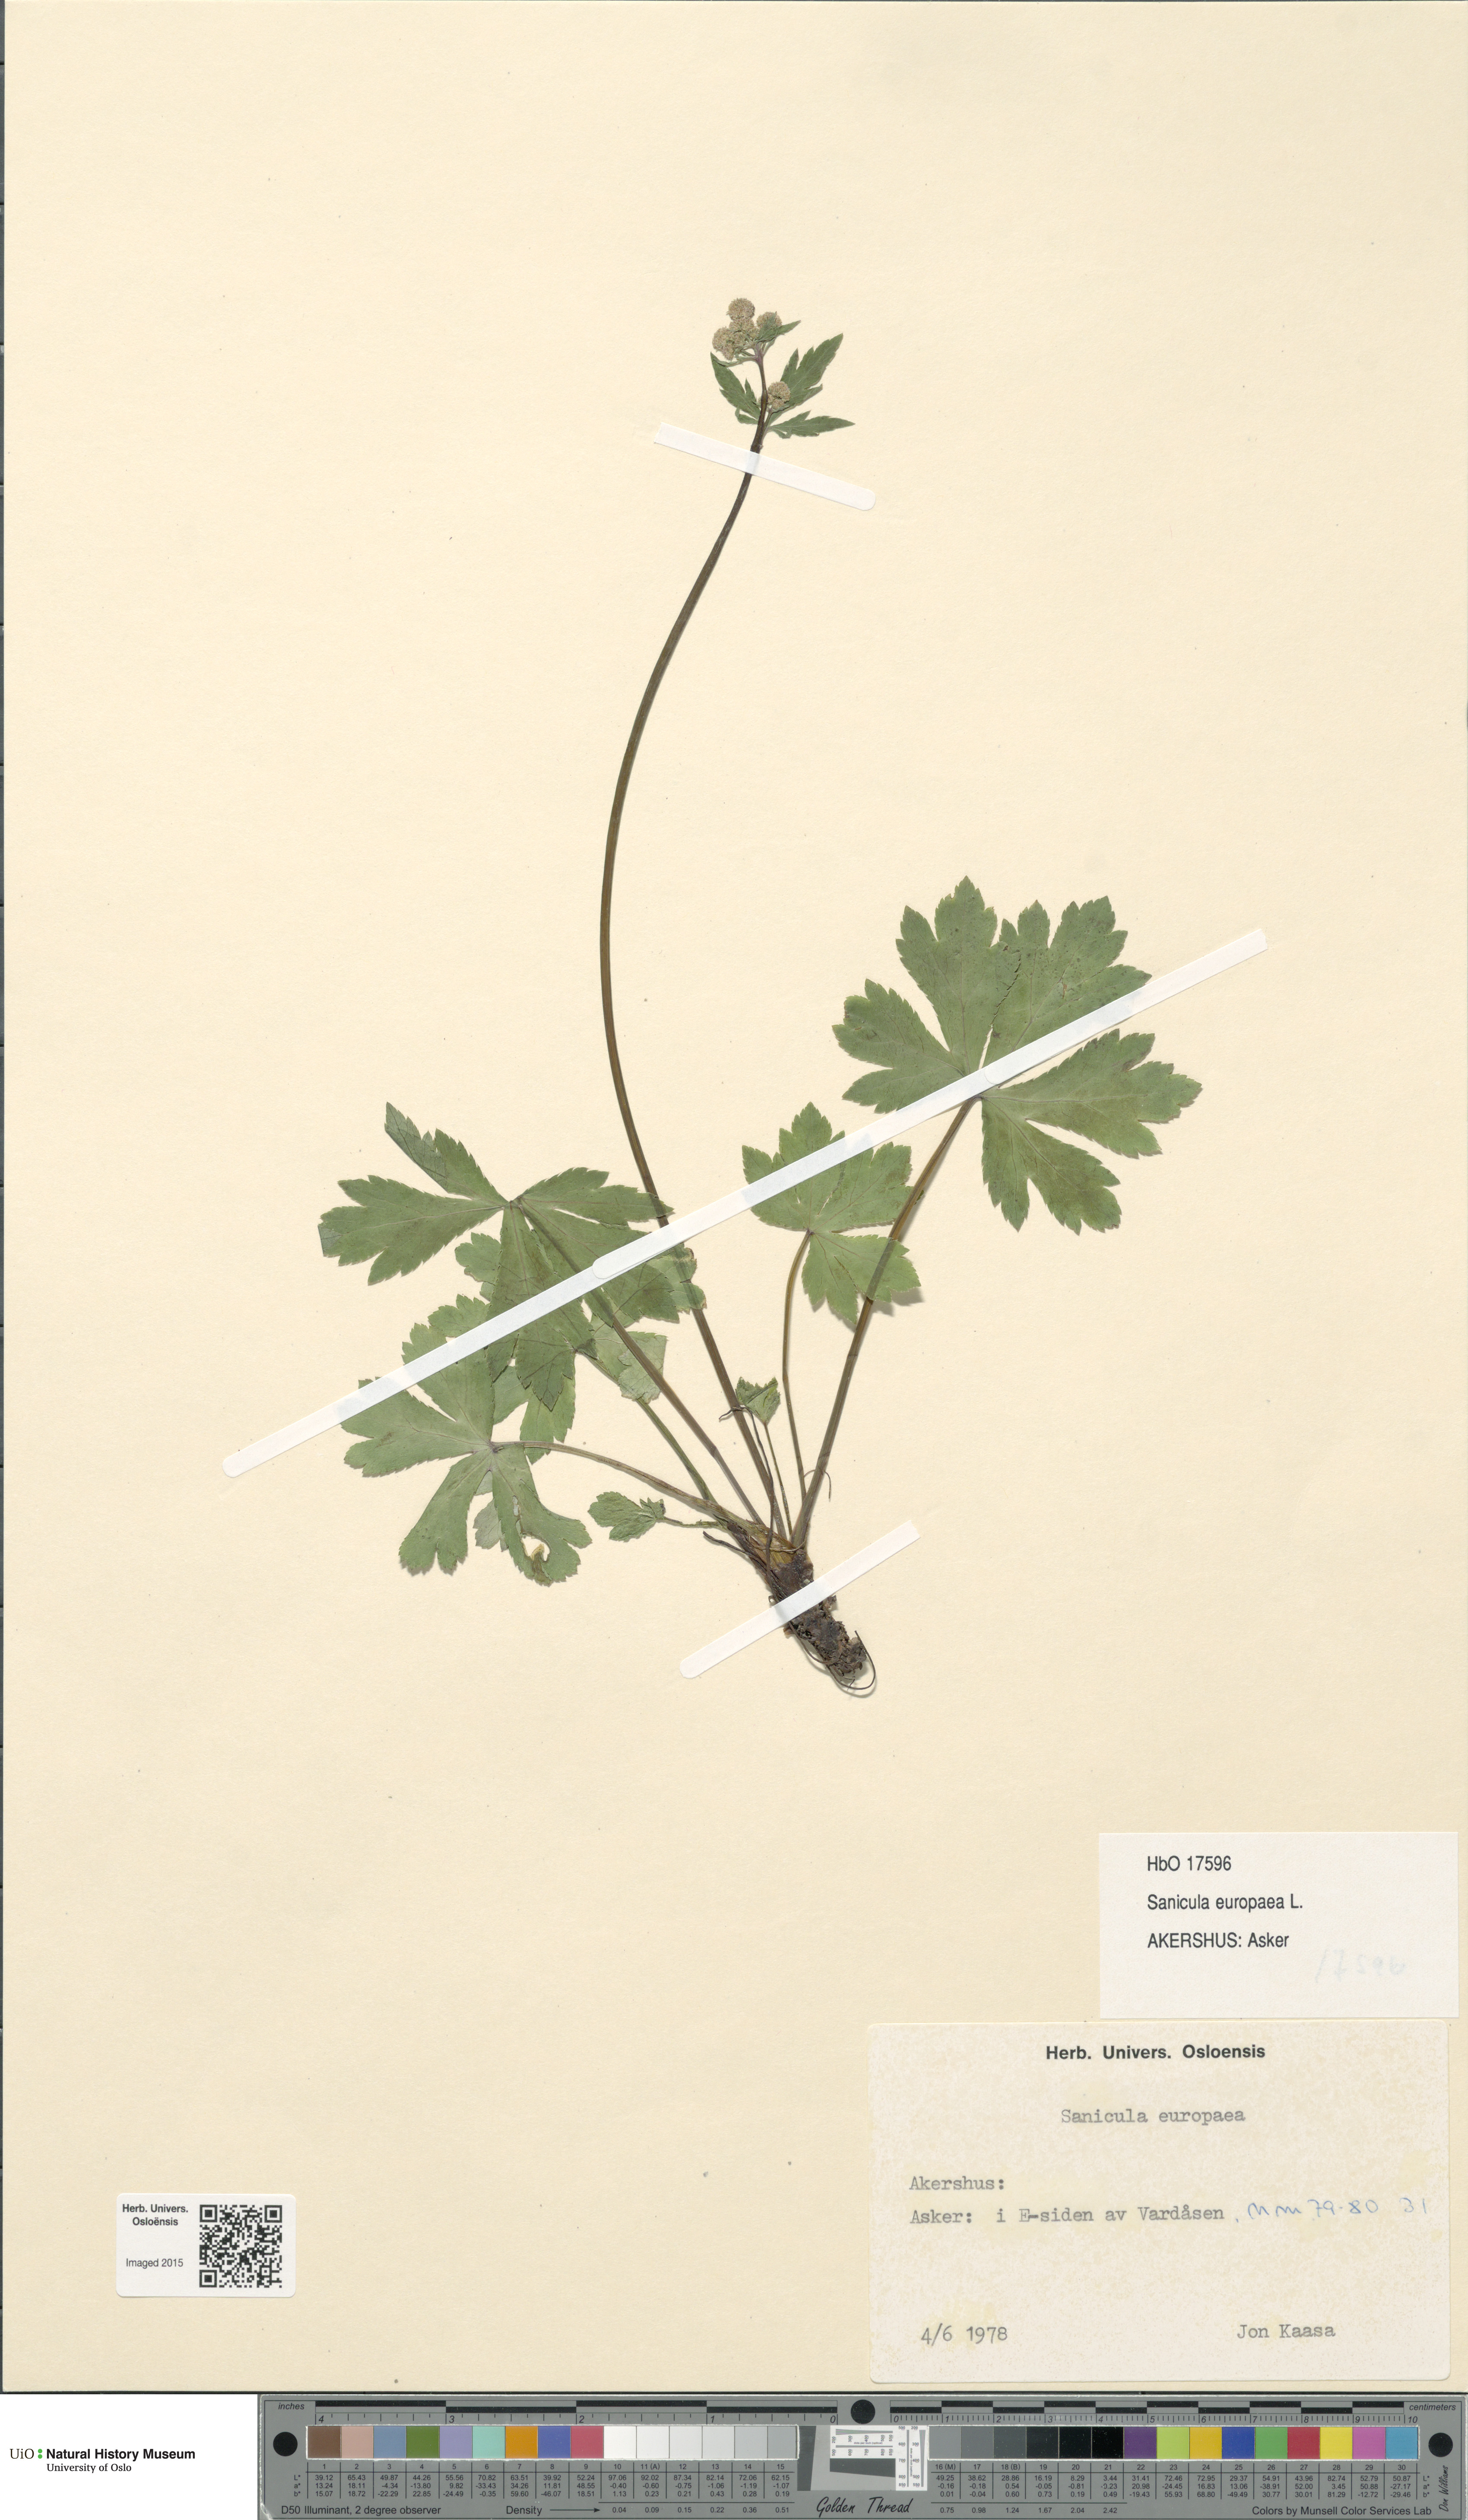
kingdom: Plantae
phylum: Tracheophyta
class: Magnoliopsida
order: Apiales
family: Apiaceae
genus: Sanicula
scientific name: Sanicula europaea
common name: Sanicle
